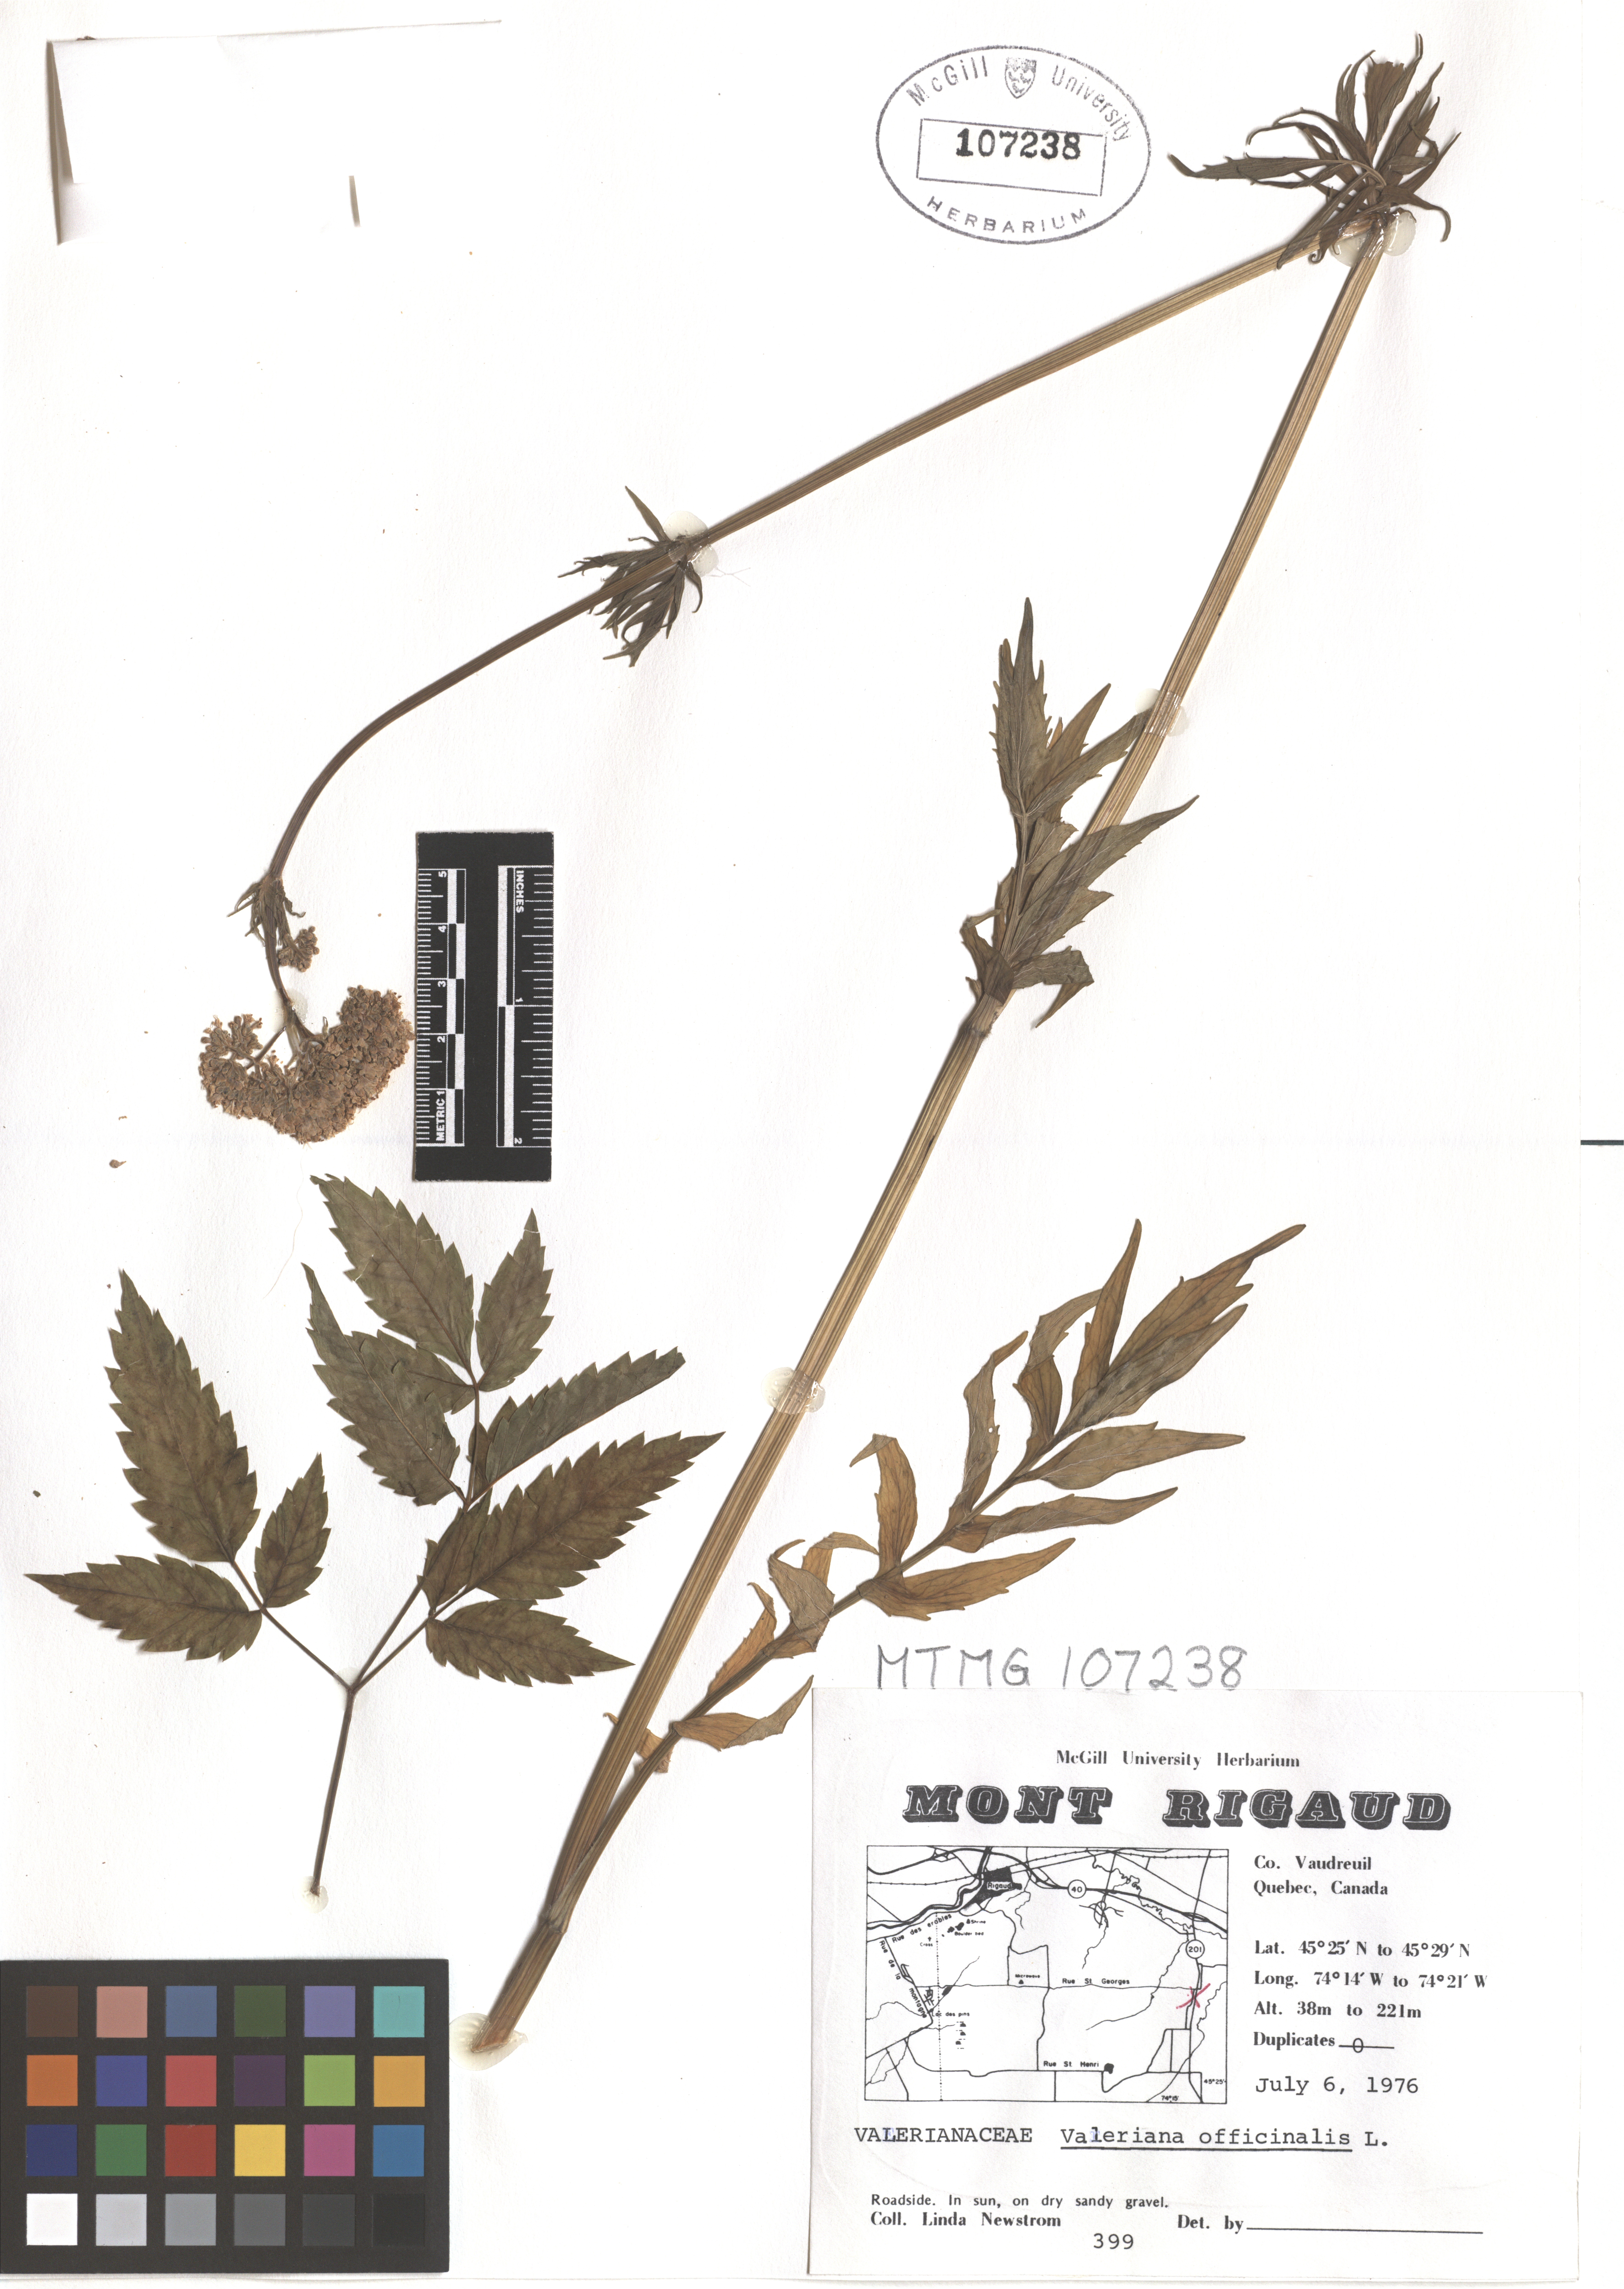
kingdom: Plantae
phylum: Tracheophyta
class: Magnoliopsida
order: Dipsacales
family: Caprifoliaceae
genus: Valeriana
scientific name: Valeriana officinalis
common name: Common valerian
